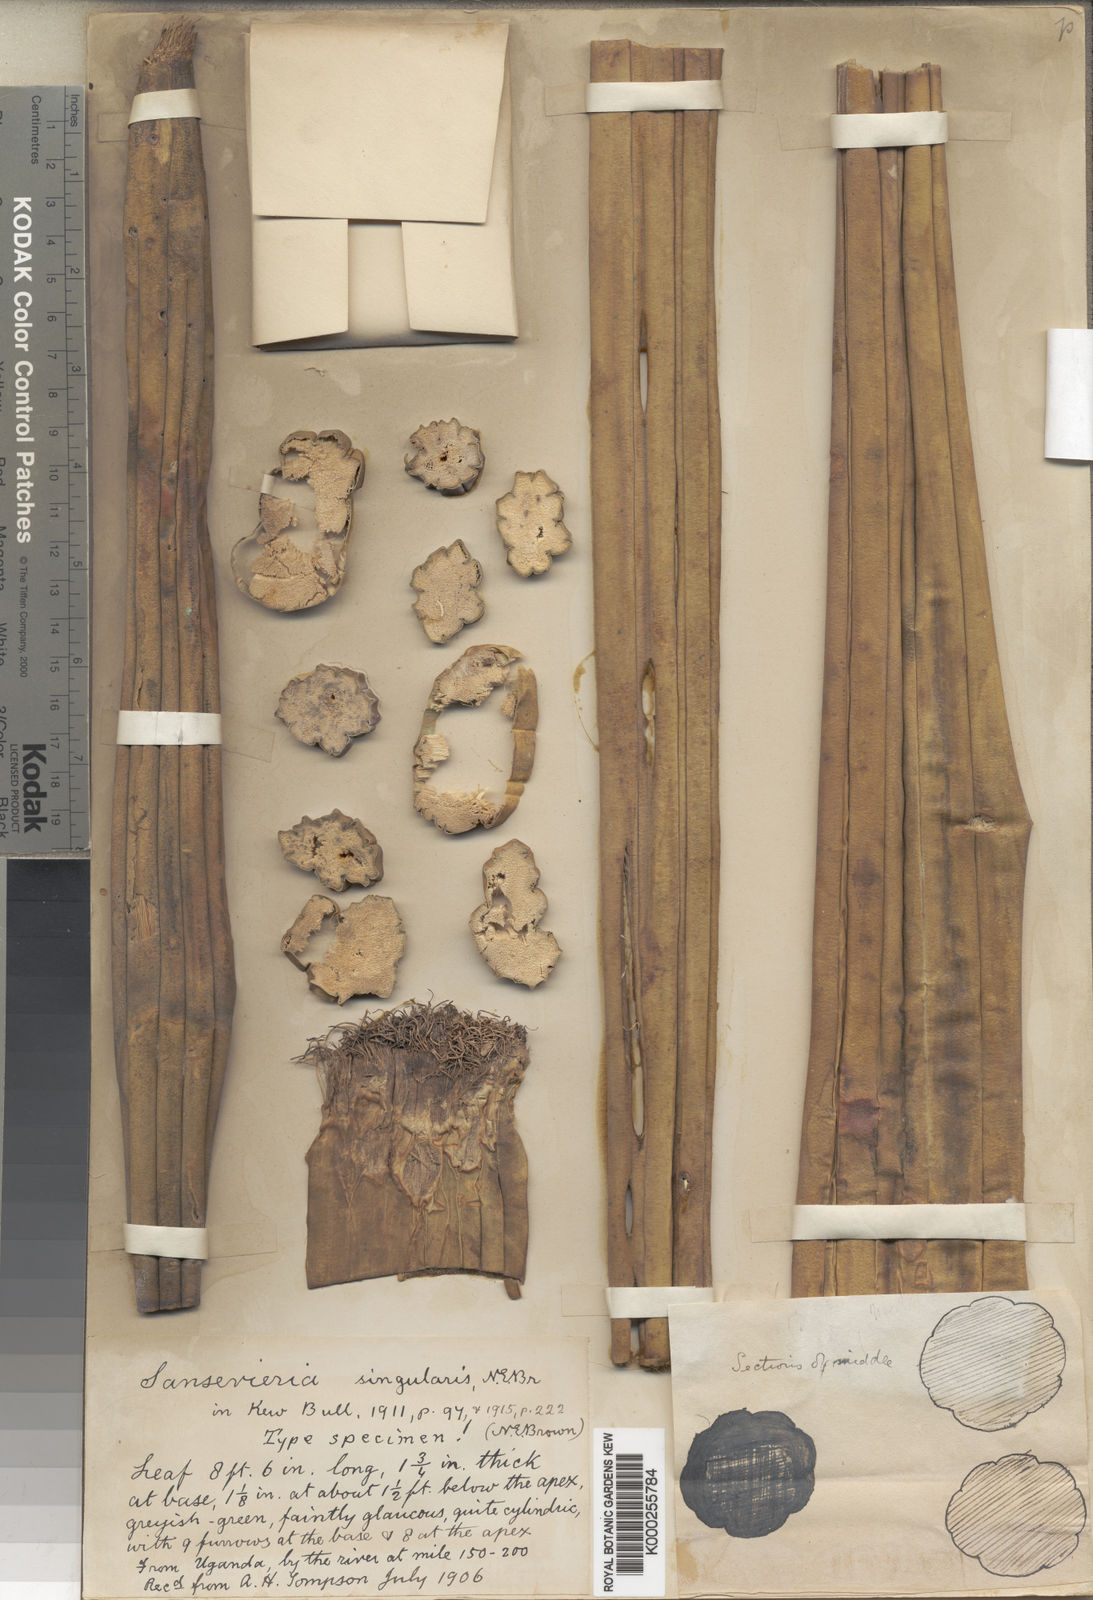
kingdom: Plantae
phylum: Tracheophyta
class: Liliopsida
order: Asparagales
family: Asparagaceae
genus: Dracaena
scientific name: Dracaena singularis
